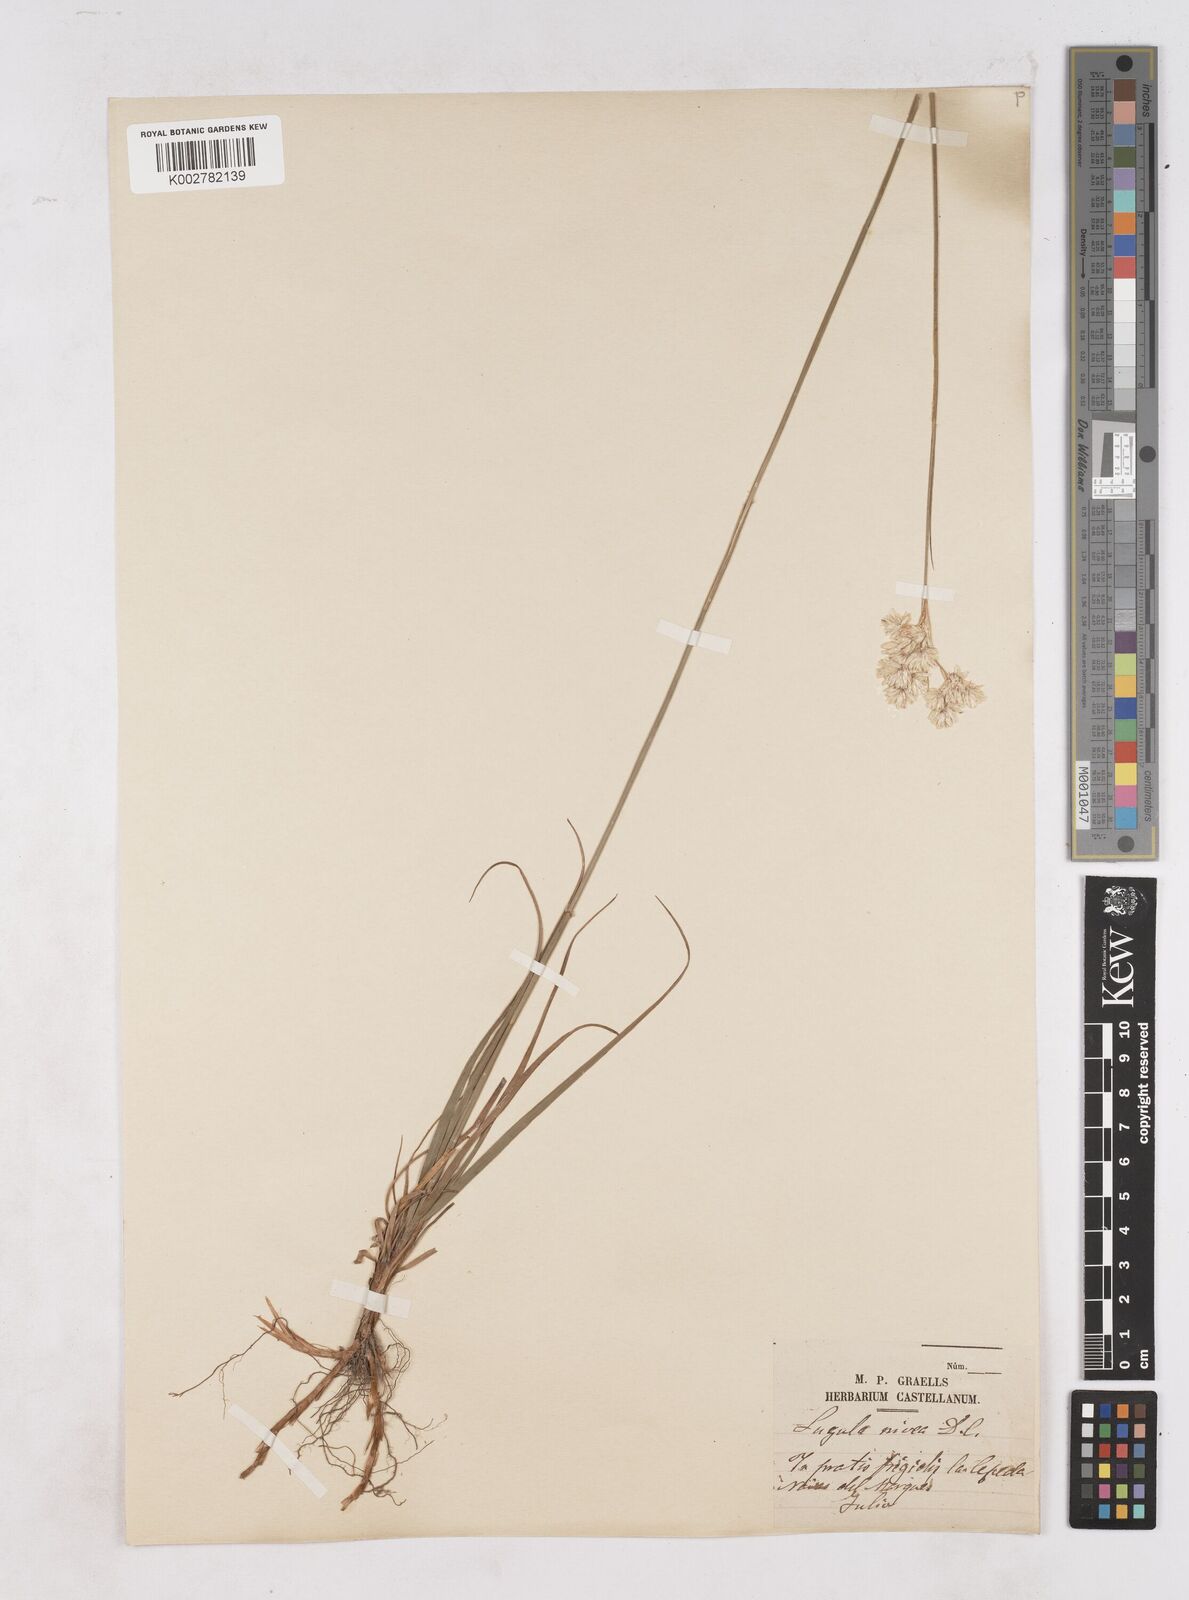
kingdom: Plantae
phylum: Tracheophyta
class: Liliopsida
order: Poales
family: Juncaceae
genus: Luzula
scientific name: Luzula nivea
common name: Snow-white wood-rush
